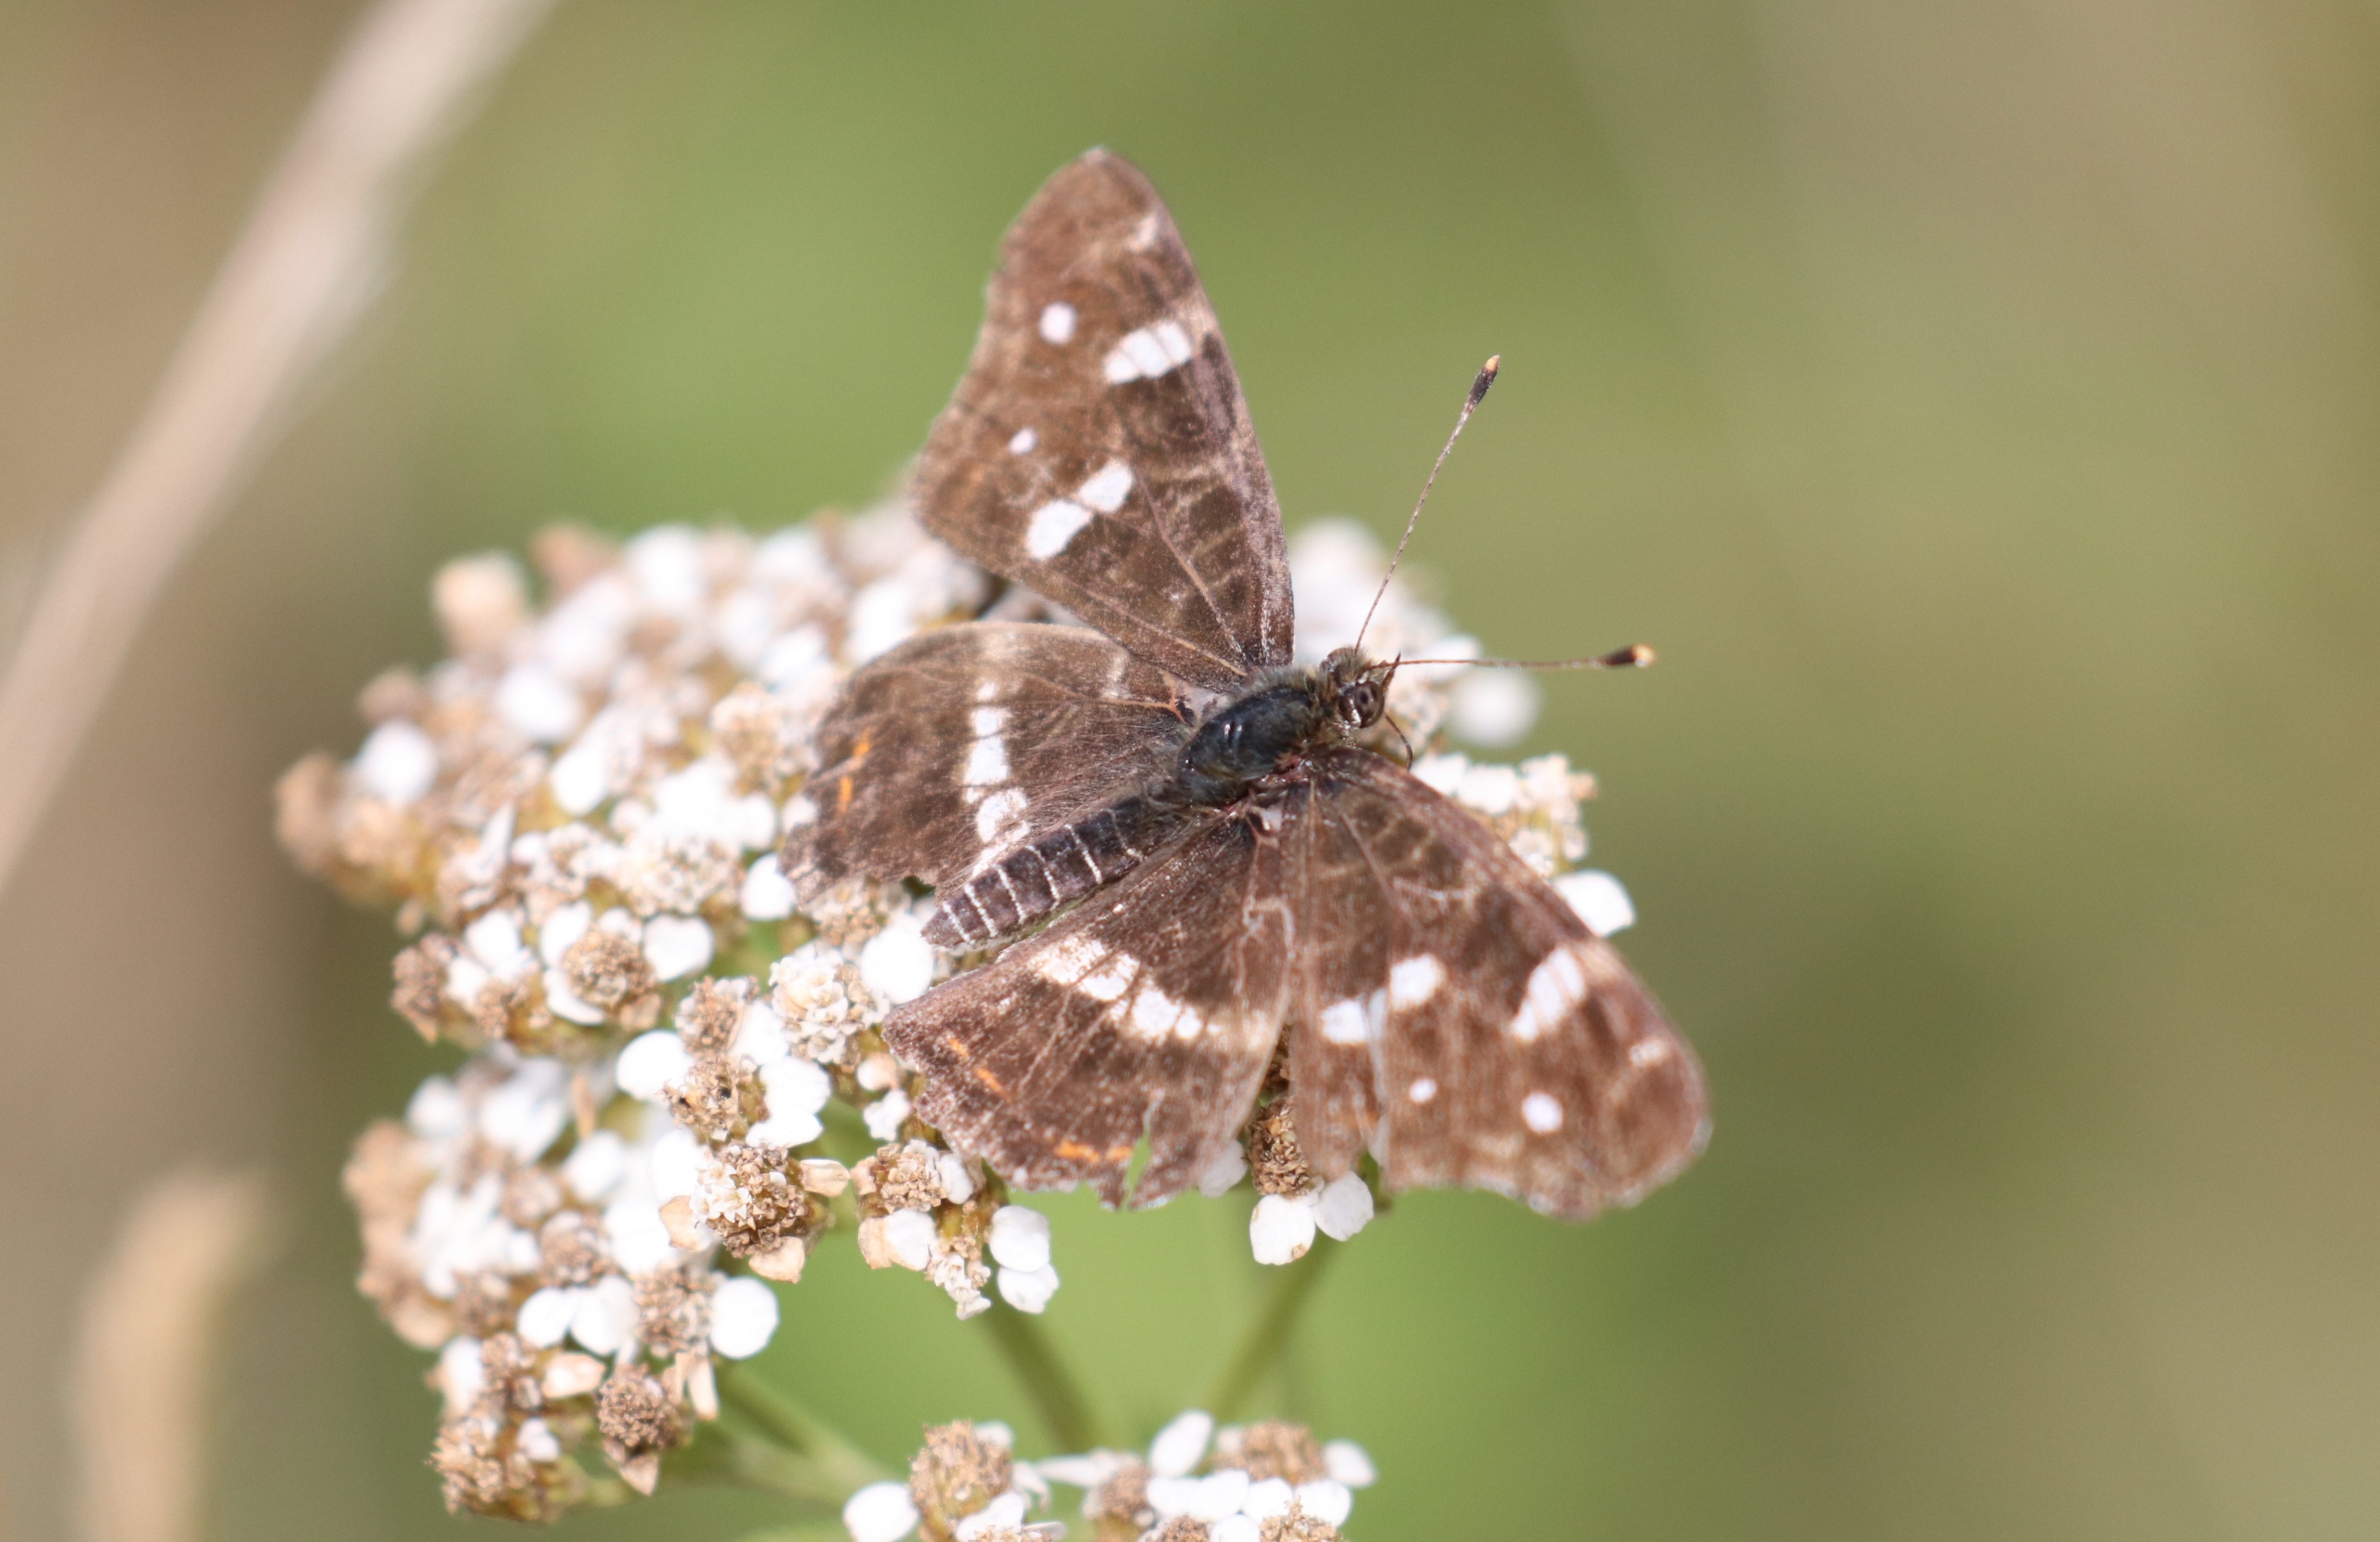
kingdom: Animalia
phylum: Arthropoda
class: Insecta
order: Lepidoptera
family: Nymphalidae
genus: Araschnia
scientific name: Araschnia levana
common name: Nældesommerfugl
